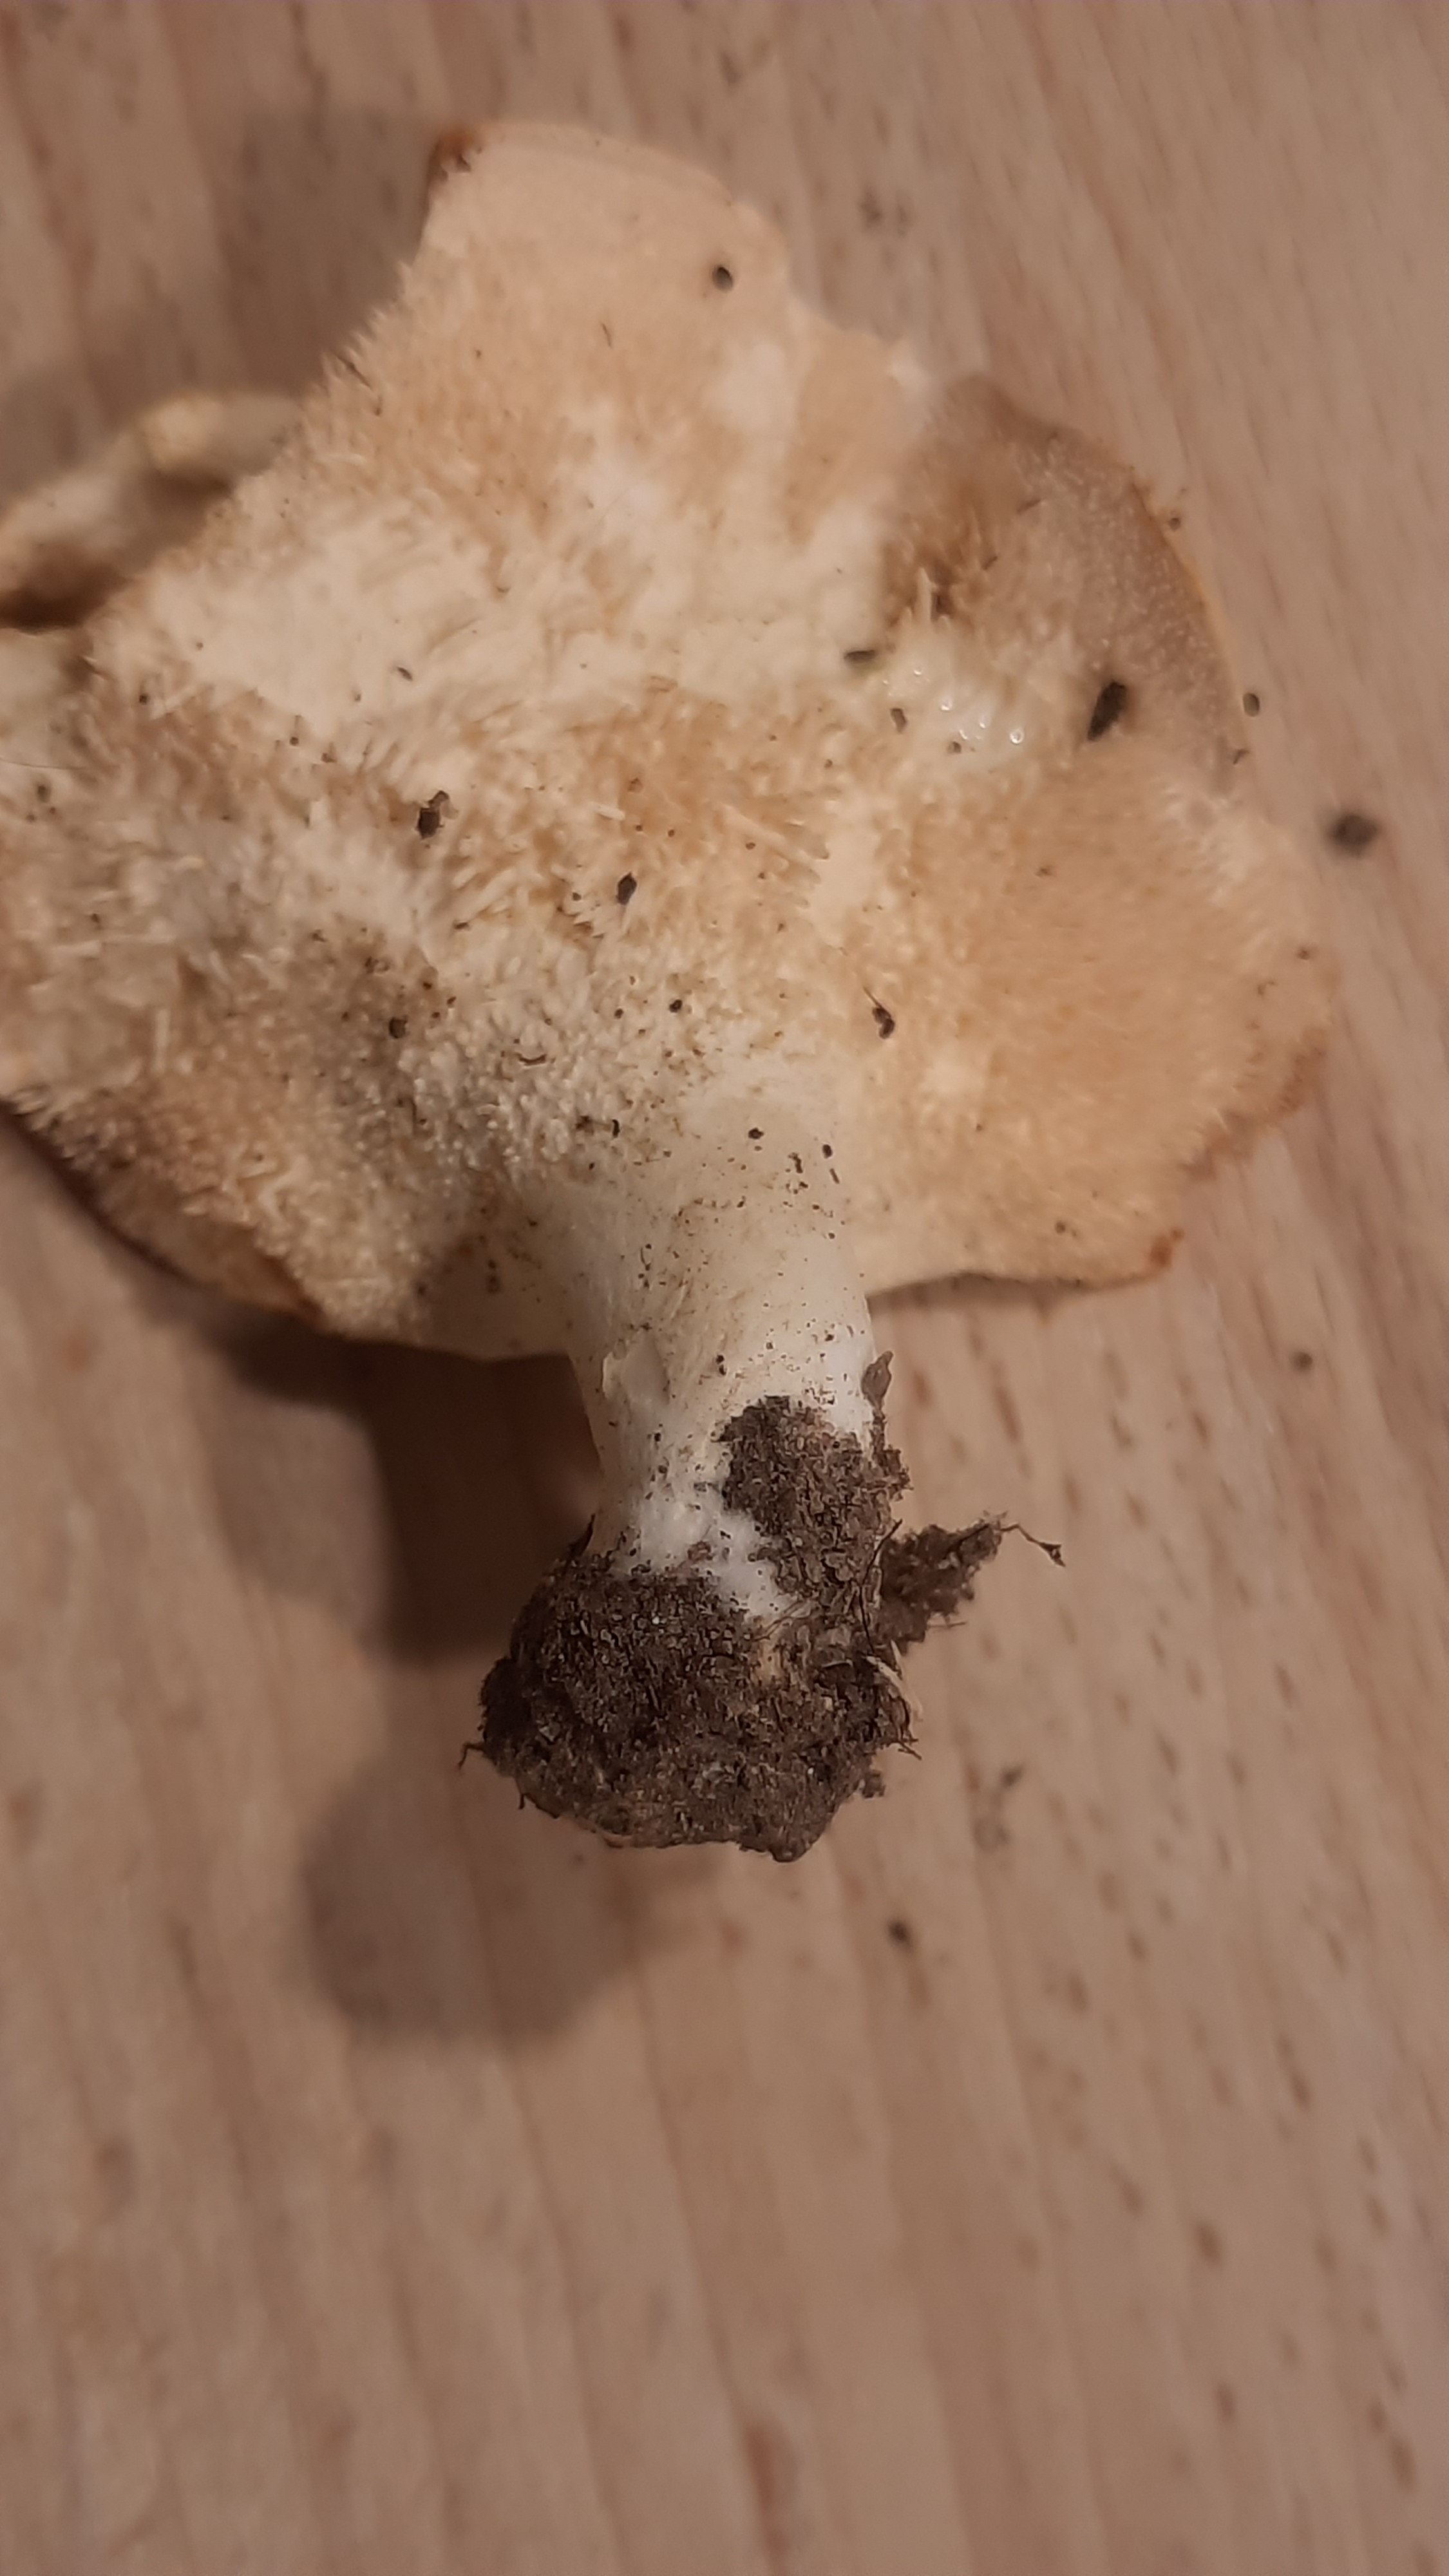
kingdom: Fungi
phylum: Basidiomycota
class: Agaricomycetes
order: Cantharellales
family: Hydnaceae
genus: Hydnum
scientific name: Hydnum repandum
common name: almindelig pigsvamp
